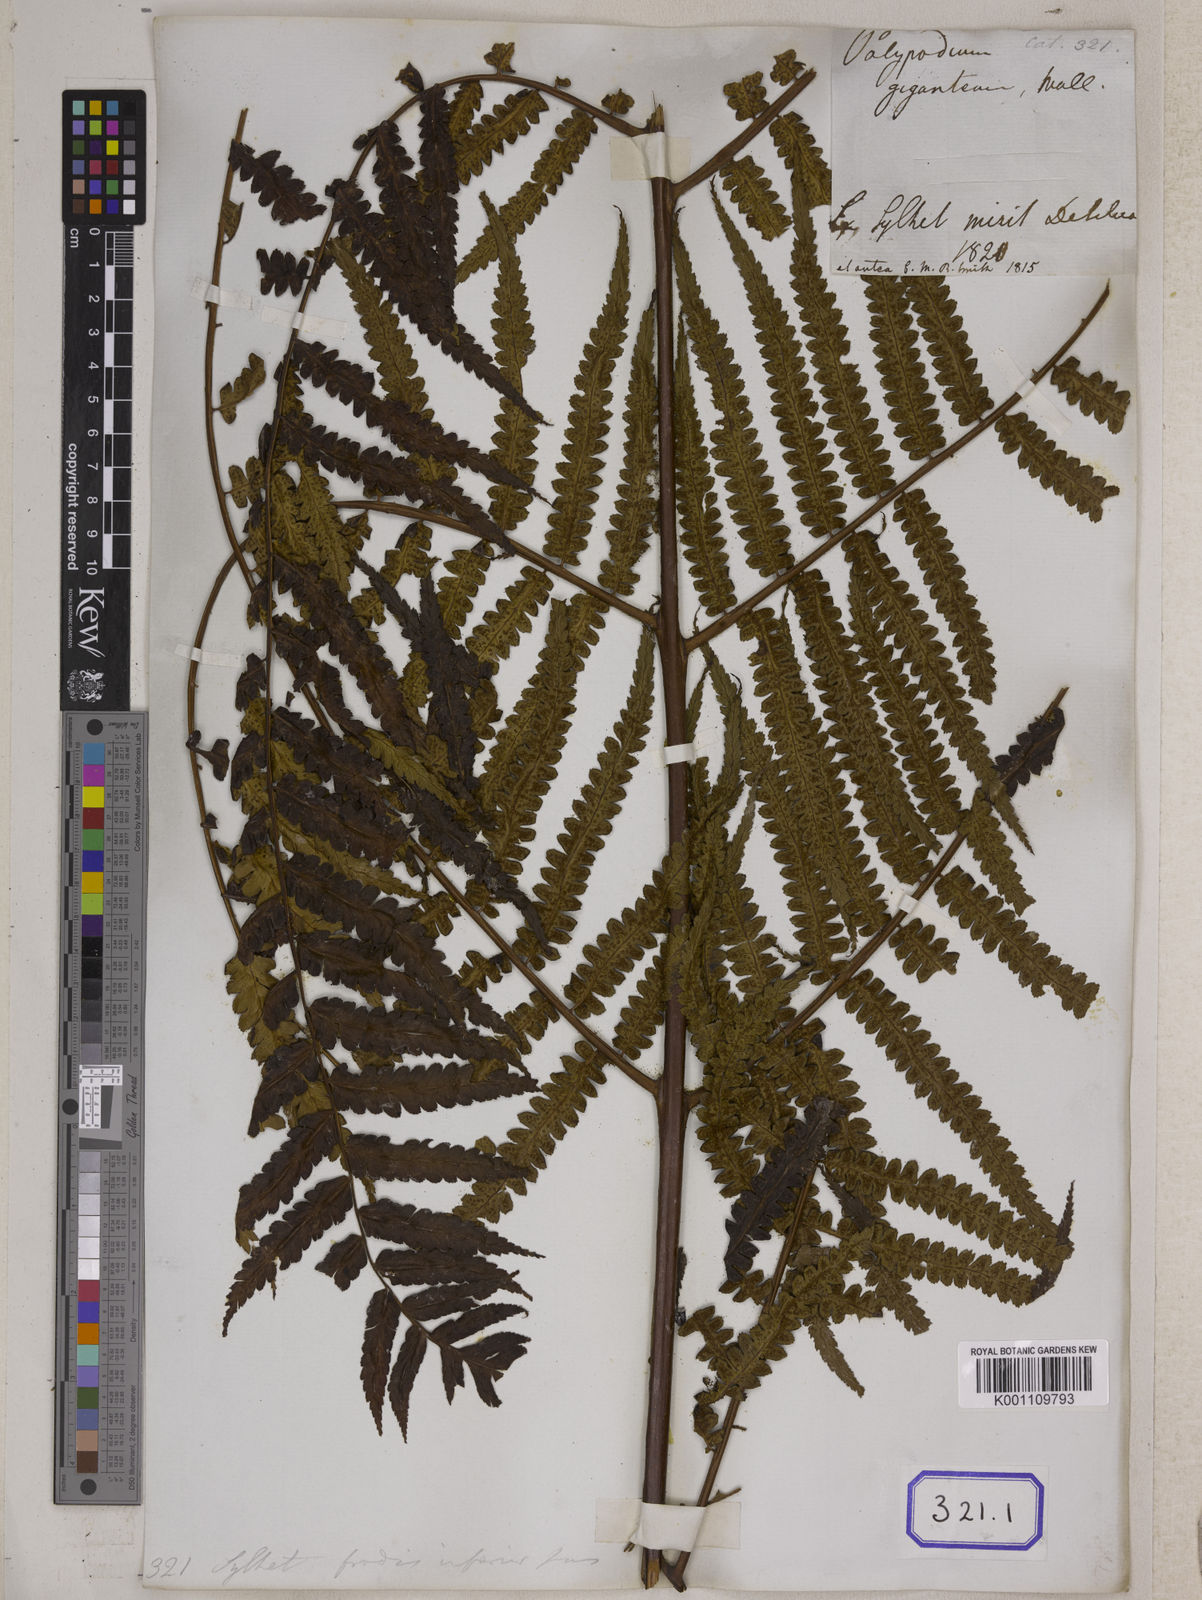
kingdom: Plantae
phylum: Tracheophyta
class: Polypodiopsida
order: Cyatheales
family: Cyatheaceae
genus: Gymnosphaera
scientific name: Gymnosphaera gigantea
